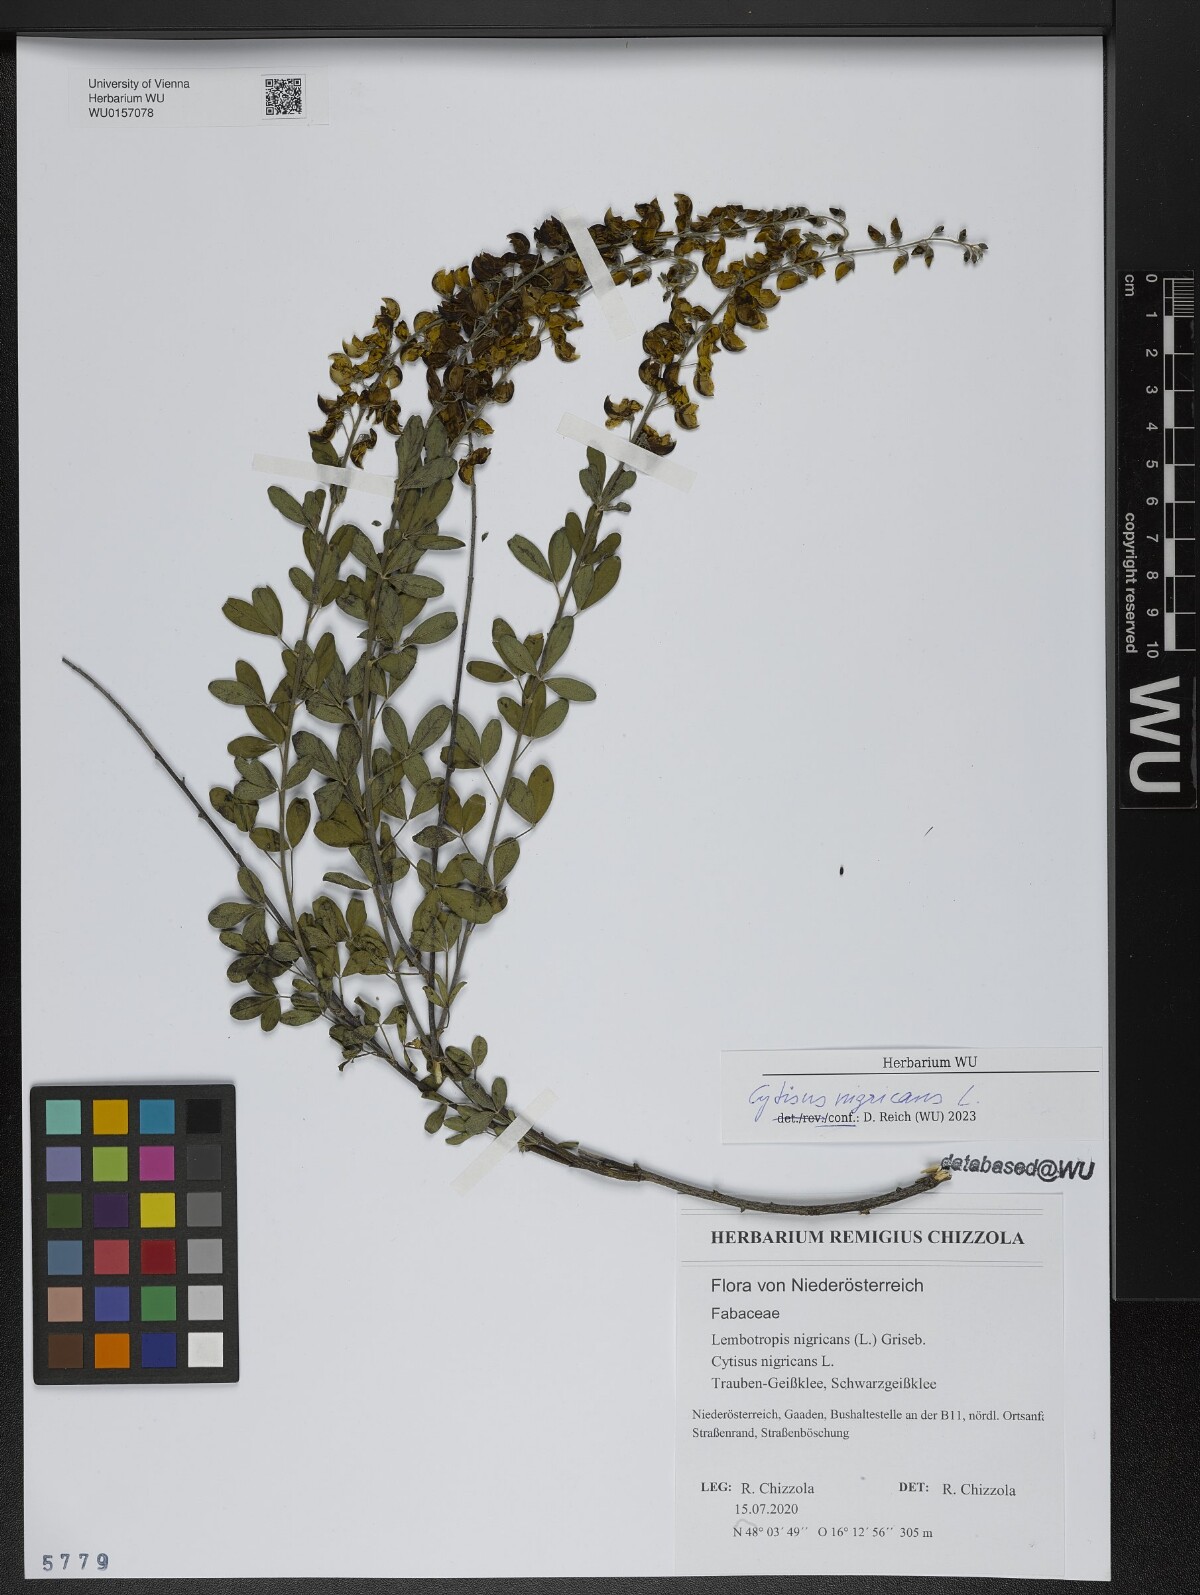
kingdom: Plantae
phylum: Tracheophyta
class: Magnoliopsida
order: Fabales
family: Fabaceae
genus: Cytisus
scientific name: Cytisus nigricans
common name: Black broom
